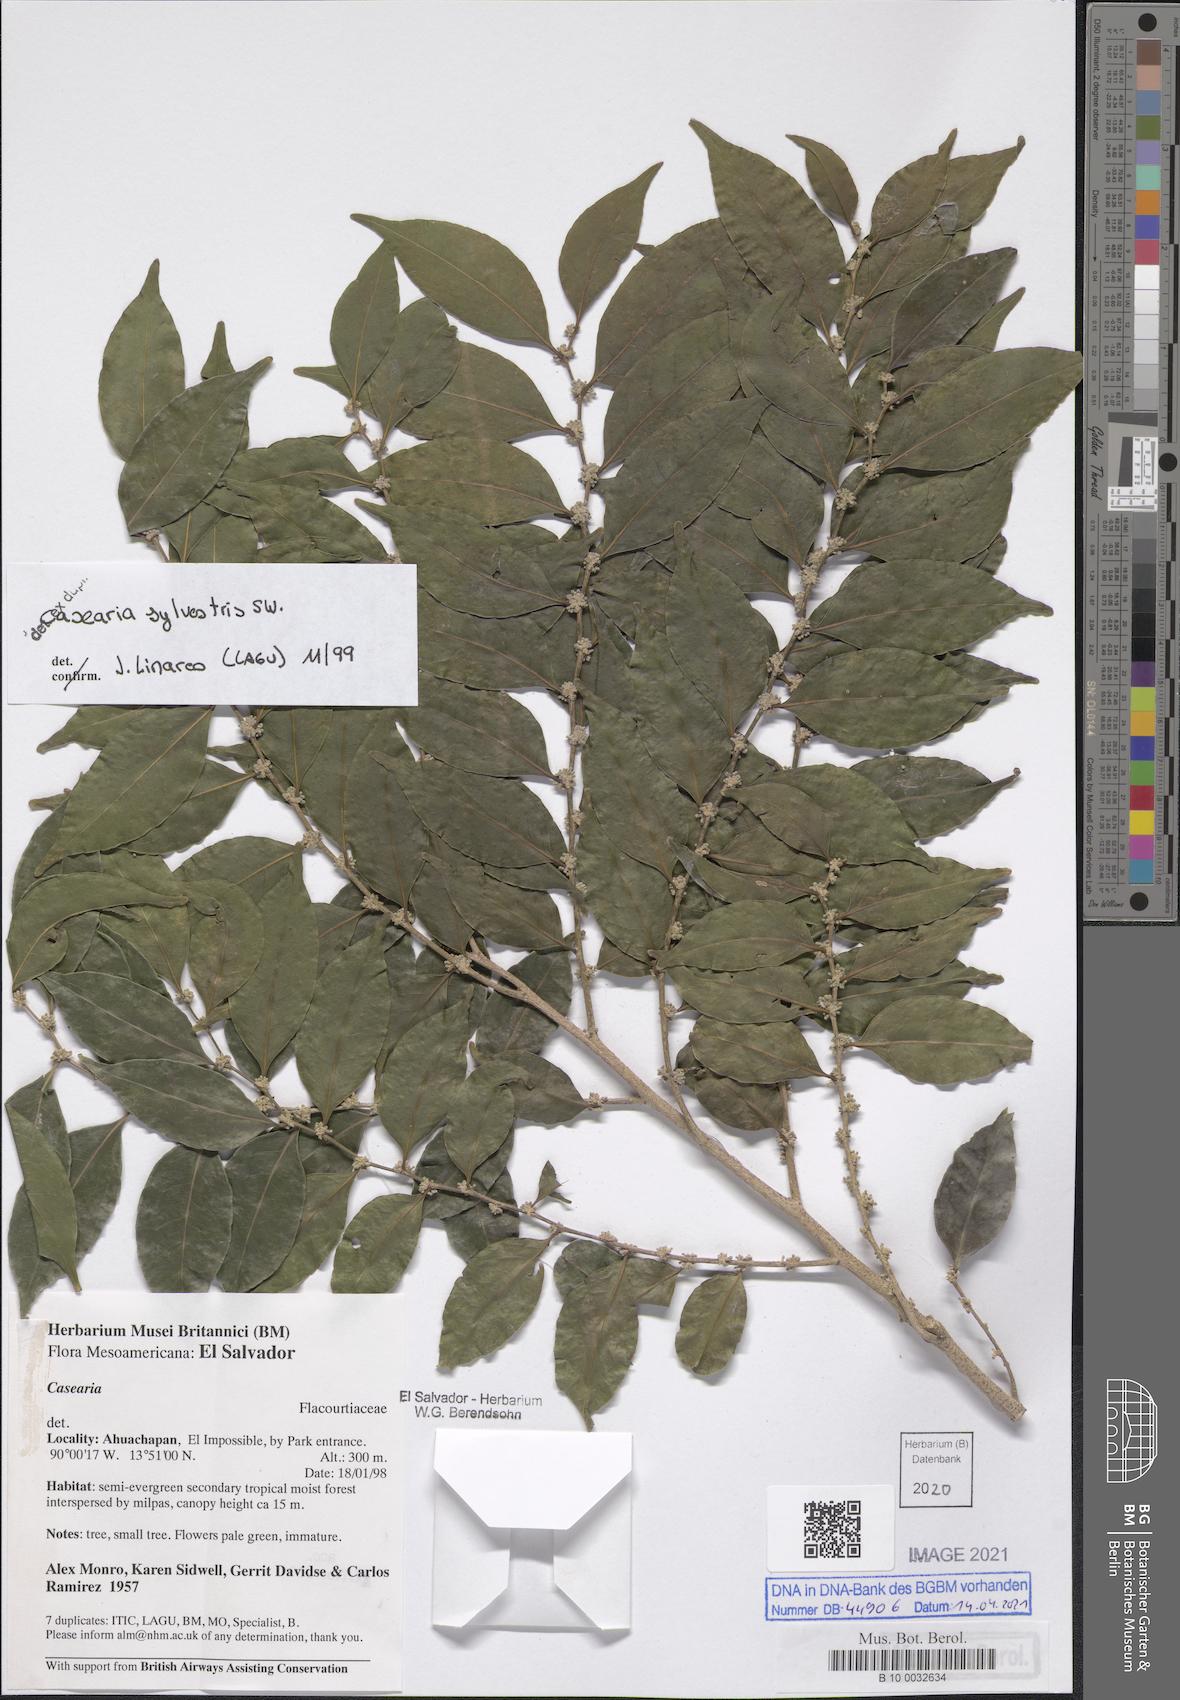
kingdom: Plantae
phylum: Tracheophyta
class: Magnoliopsida
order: Malpighiales
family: Salicaceae
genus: Casearia
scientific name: Casearia sylvestris
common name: Wild sage
